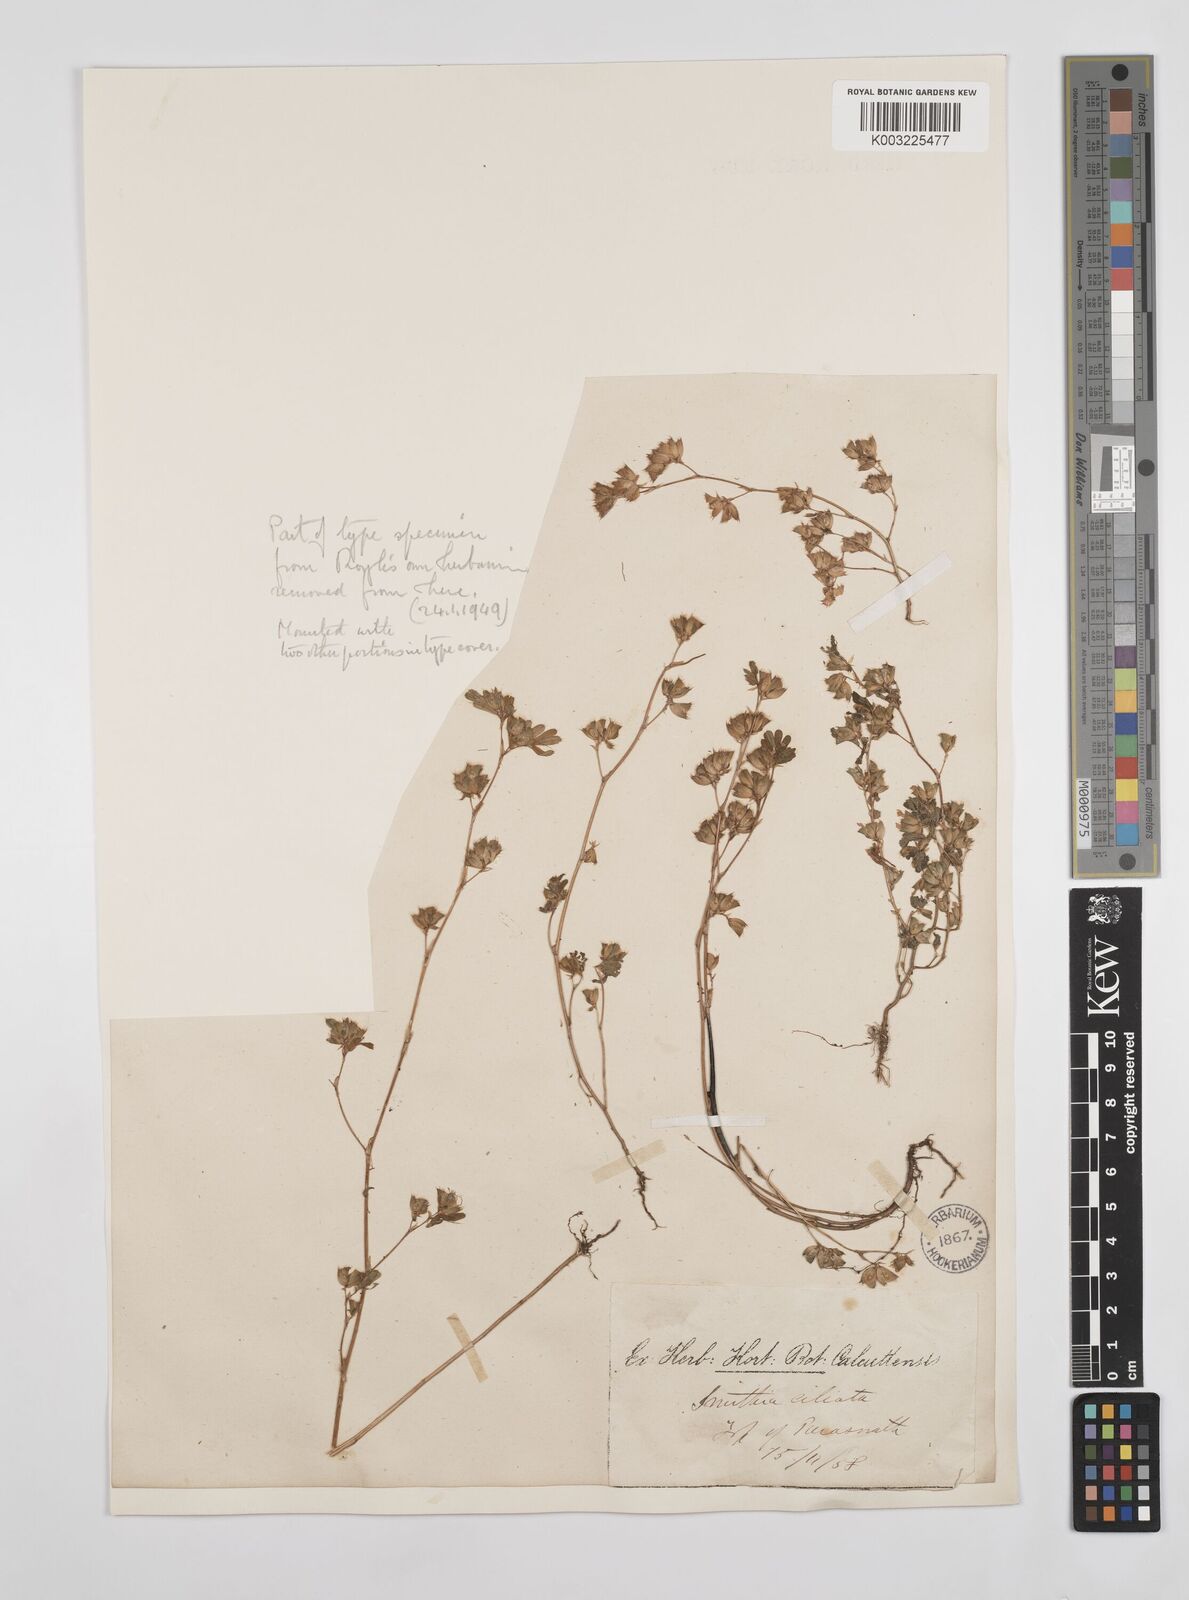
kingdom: Plantae
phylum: Tracheophyta
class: Magnoliopsida
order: Fabales
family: Fabaceae
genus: Smithia
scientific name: Smithia ciliata
